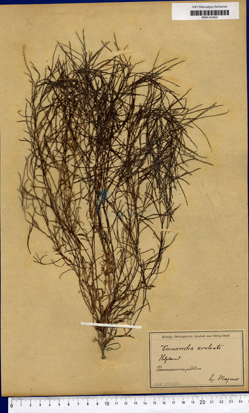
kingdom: Chromista
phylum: Ochrophyta
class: Phaeophyceae
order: Desmarestiales
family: Desmarestiaceae
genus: Desmarestia
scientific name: Desmarestia aculeata
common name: Witch's hair
